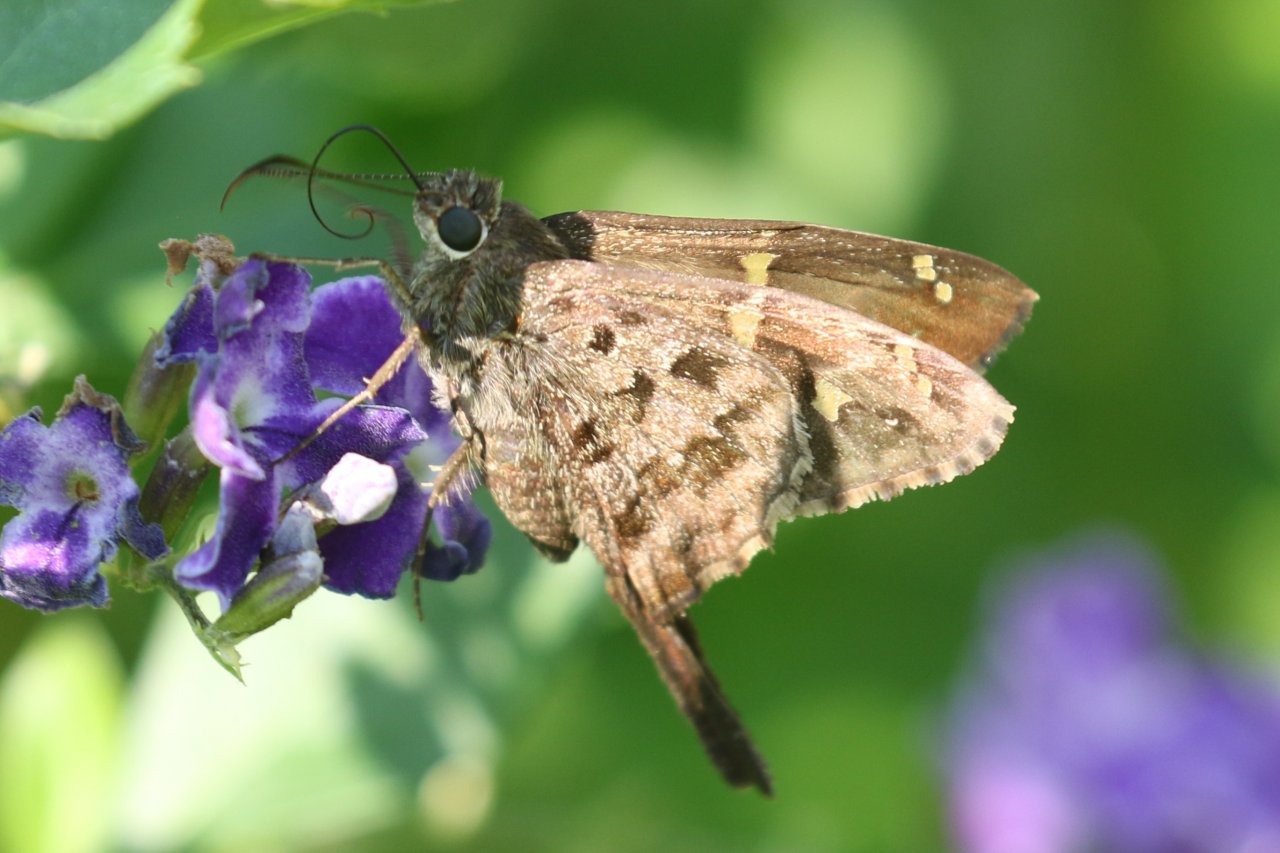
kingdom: Animalia
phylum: Arthropoda
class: Insecta
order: Lepidoptera
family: Hesperiidae
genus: Urbanus
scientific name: Urbanus dorantes
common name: Dorantes Longtail
